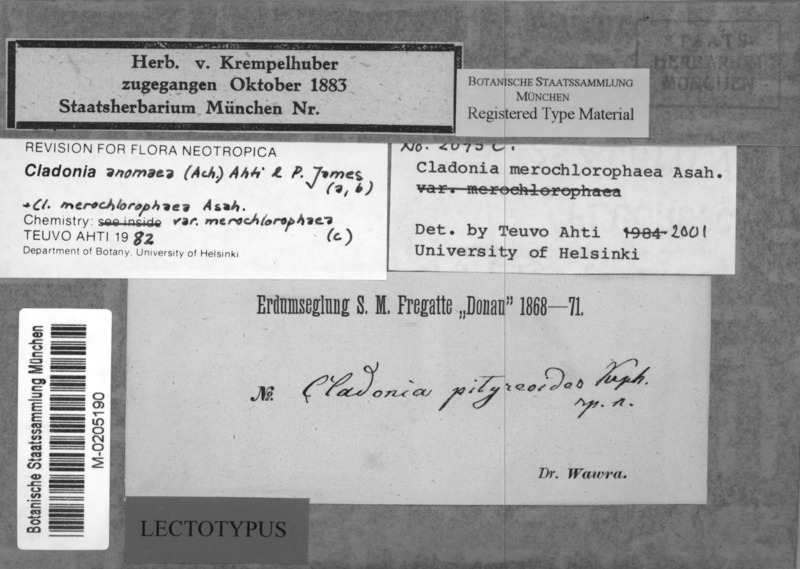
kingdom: Fungi
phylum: Ascomycota
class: Lecanoromycetes
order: Lecanorales
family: Cladoniaceae
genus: Cladonia
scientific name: Cladonia ramulosa
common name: Branched pixie-cup lichen
